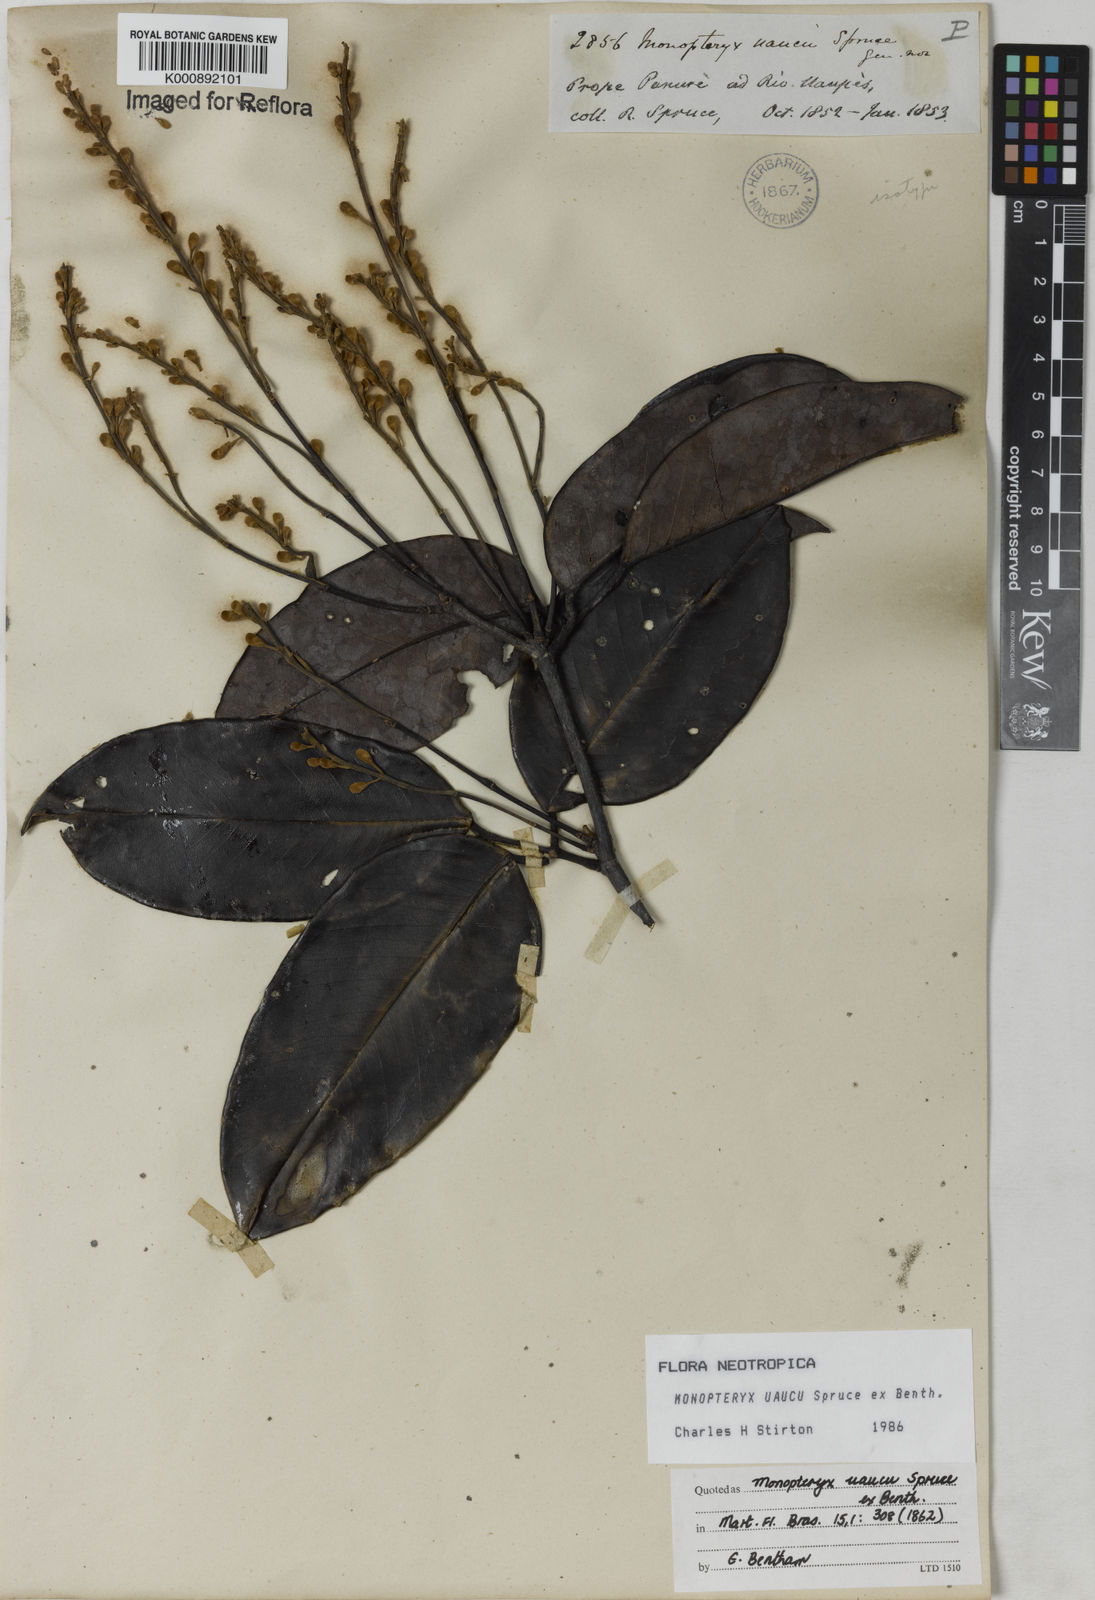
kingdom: Plantae
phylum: Tracheophyta
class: Magnoliopsida
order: Fabales
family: Fabaceae
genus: Monopteryx
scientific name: Monopteryx uaucu
